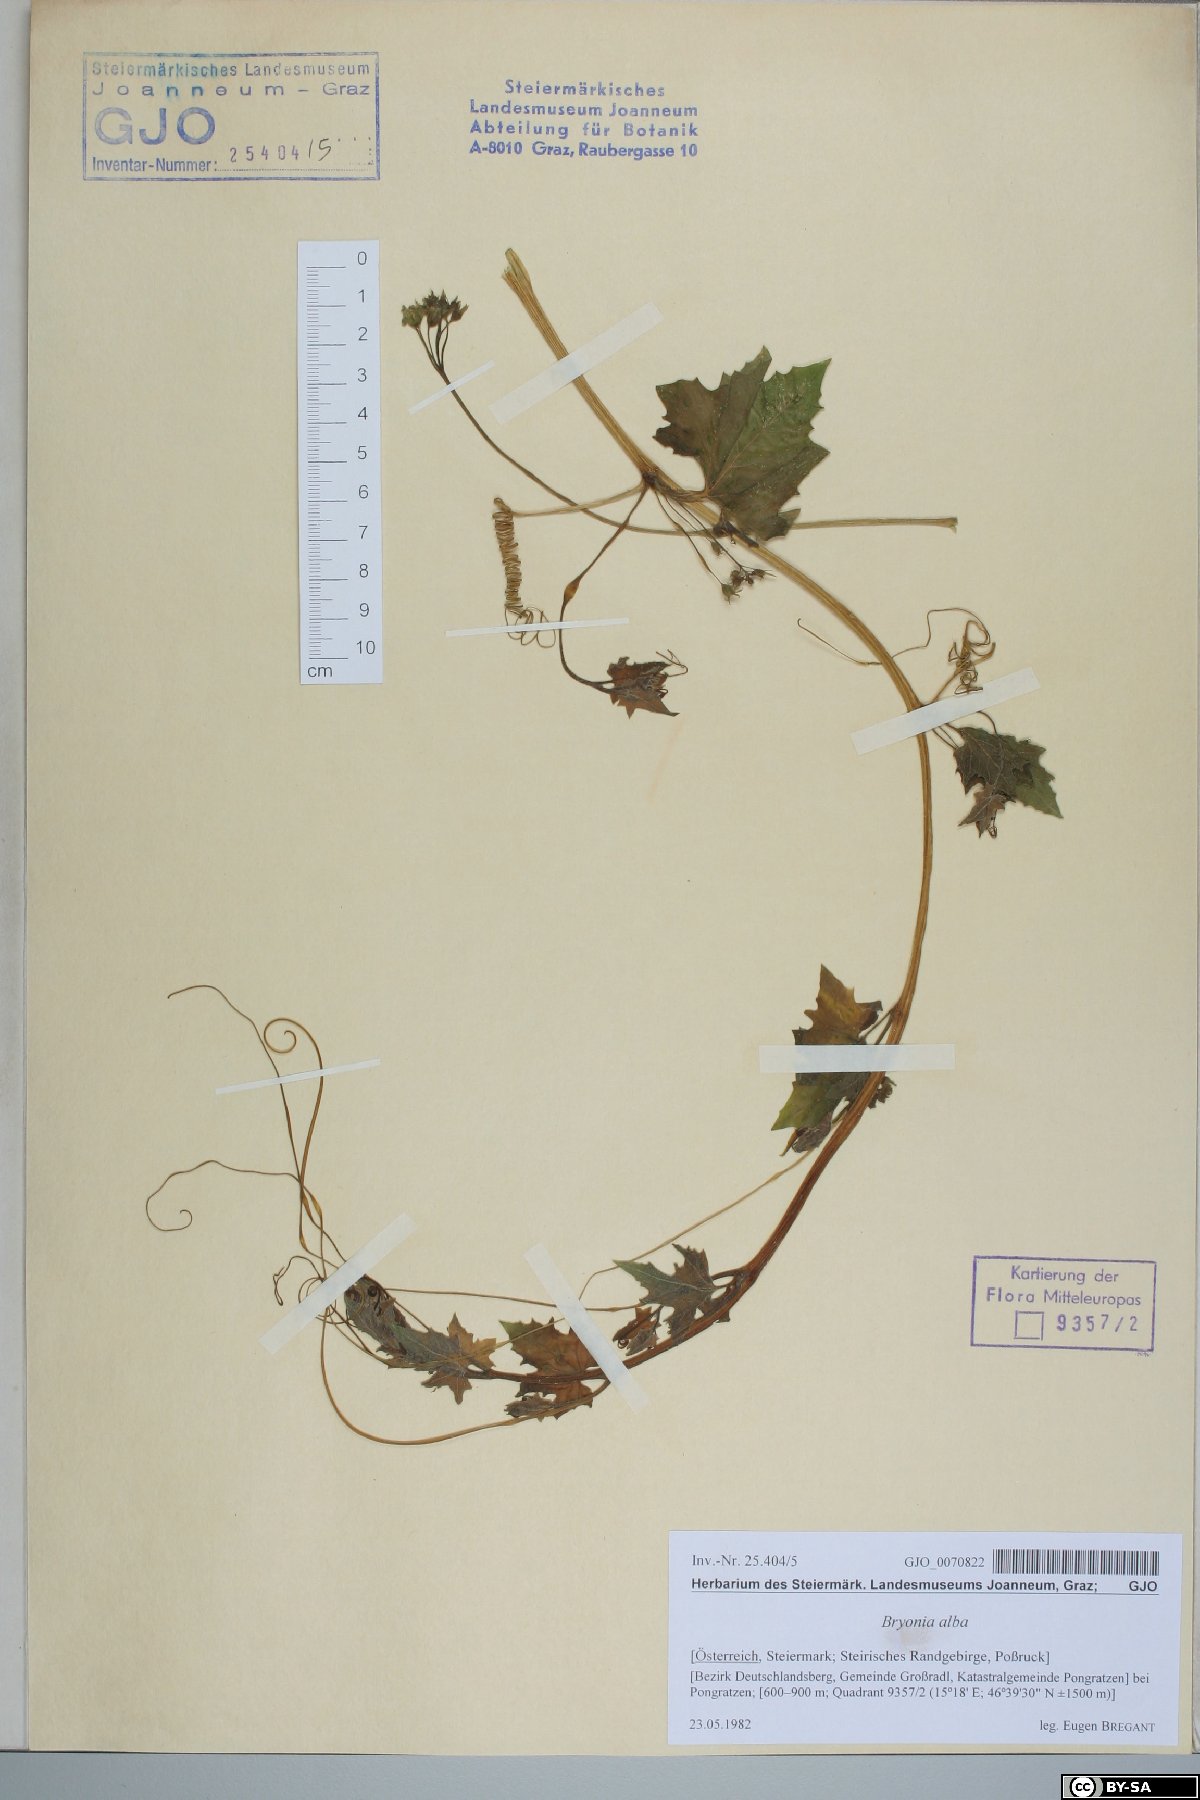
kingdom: Plantae
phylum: Tracheophyta
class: Magnoliopsida
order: Cucurbitales
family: Cucurbitaceae
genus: Bryonia
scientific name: Bryonia alba
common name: White bryony
